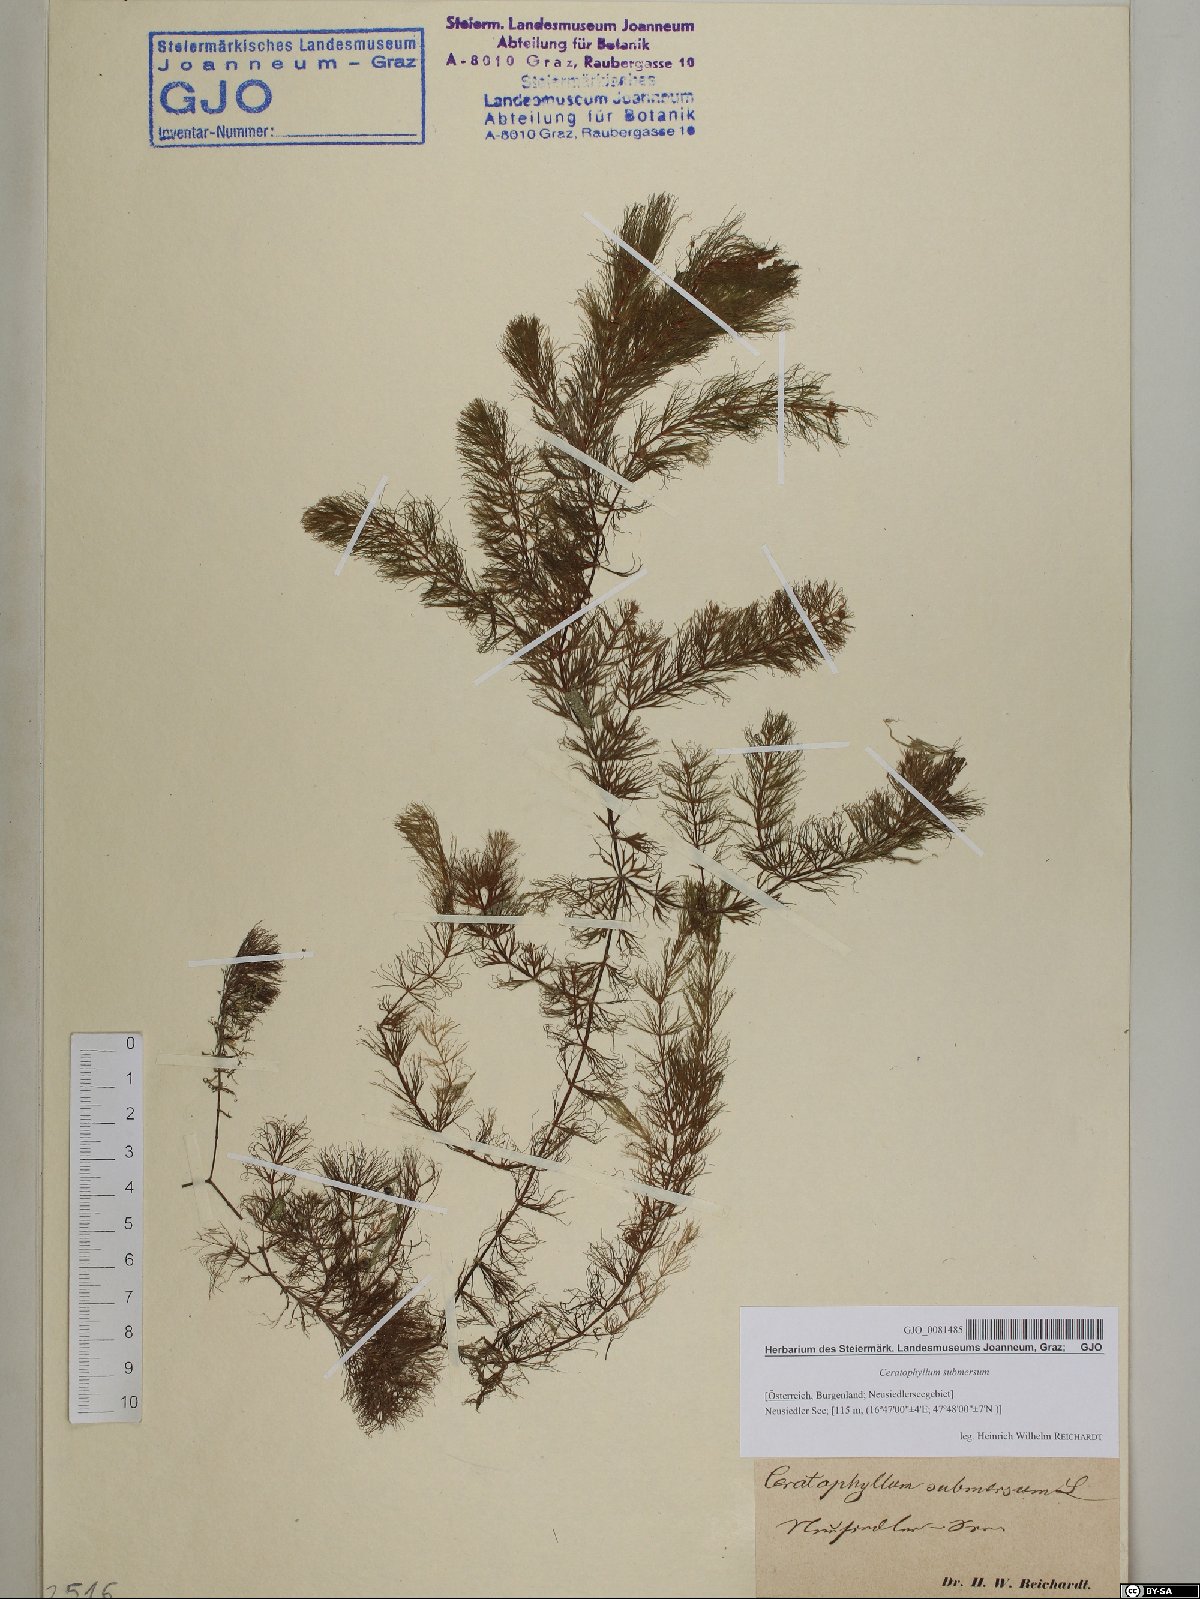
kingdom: Plantae
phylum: Tracheophyta
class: Magnoliopsida
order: Ceratophyllales
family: Ceratophyllaceae
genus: Ceratophyllum
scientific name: Ceratophyllum submersum
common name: Soft hornwort
